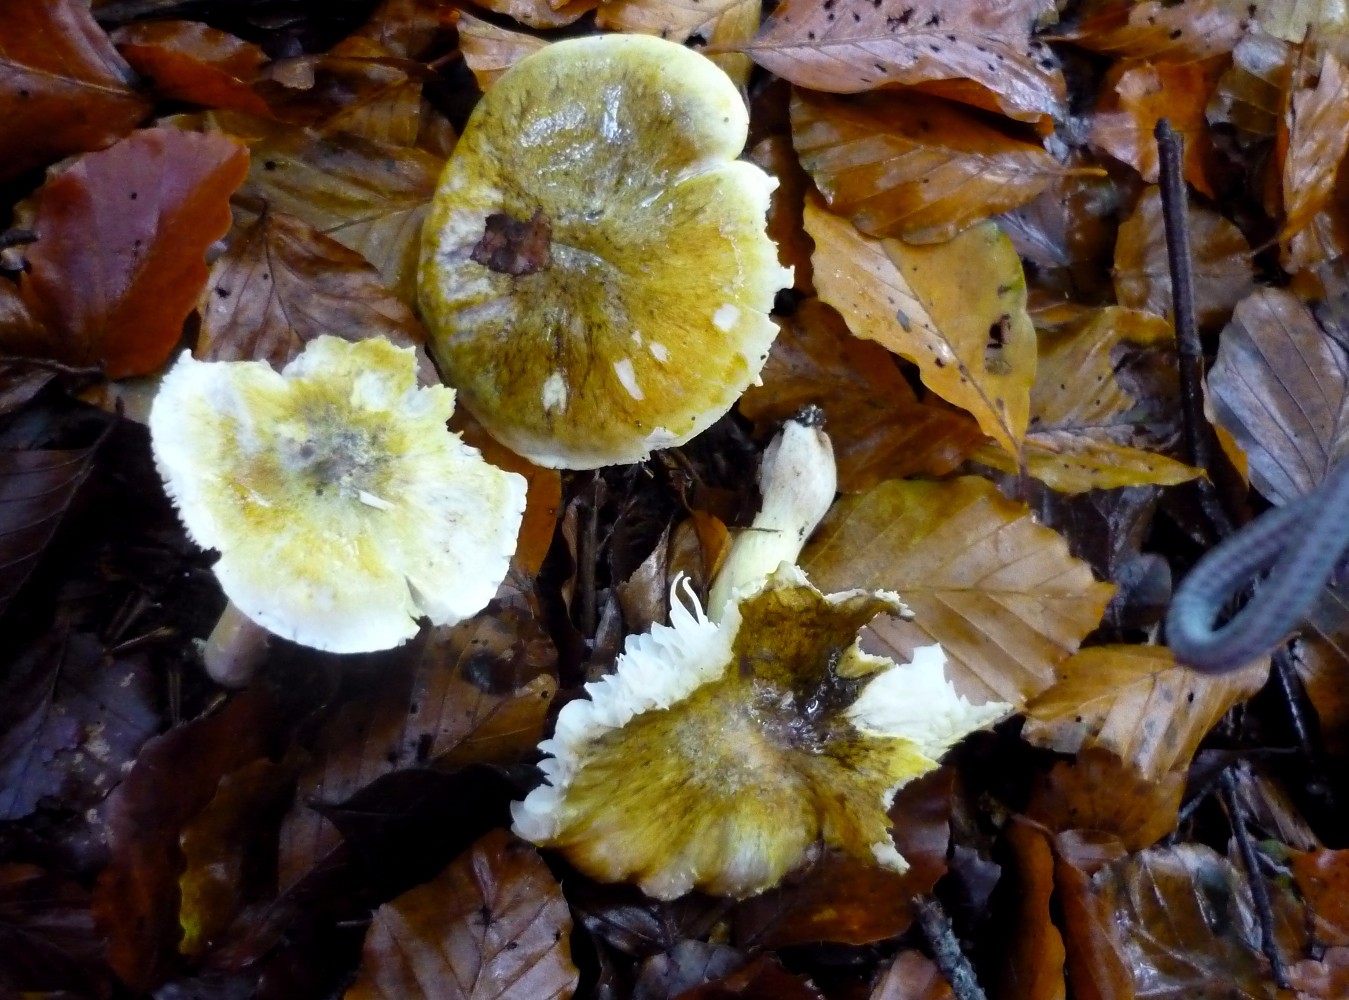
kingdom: Fungi
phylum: Basidiomycota
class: Agaricomycetes
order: Agaricales
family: Tricholomataceae
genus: Tricholoma
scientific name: Tricholoma sejunctum
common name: grøngul ridderhat
